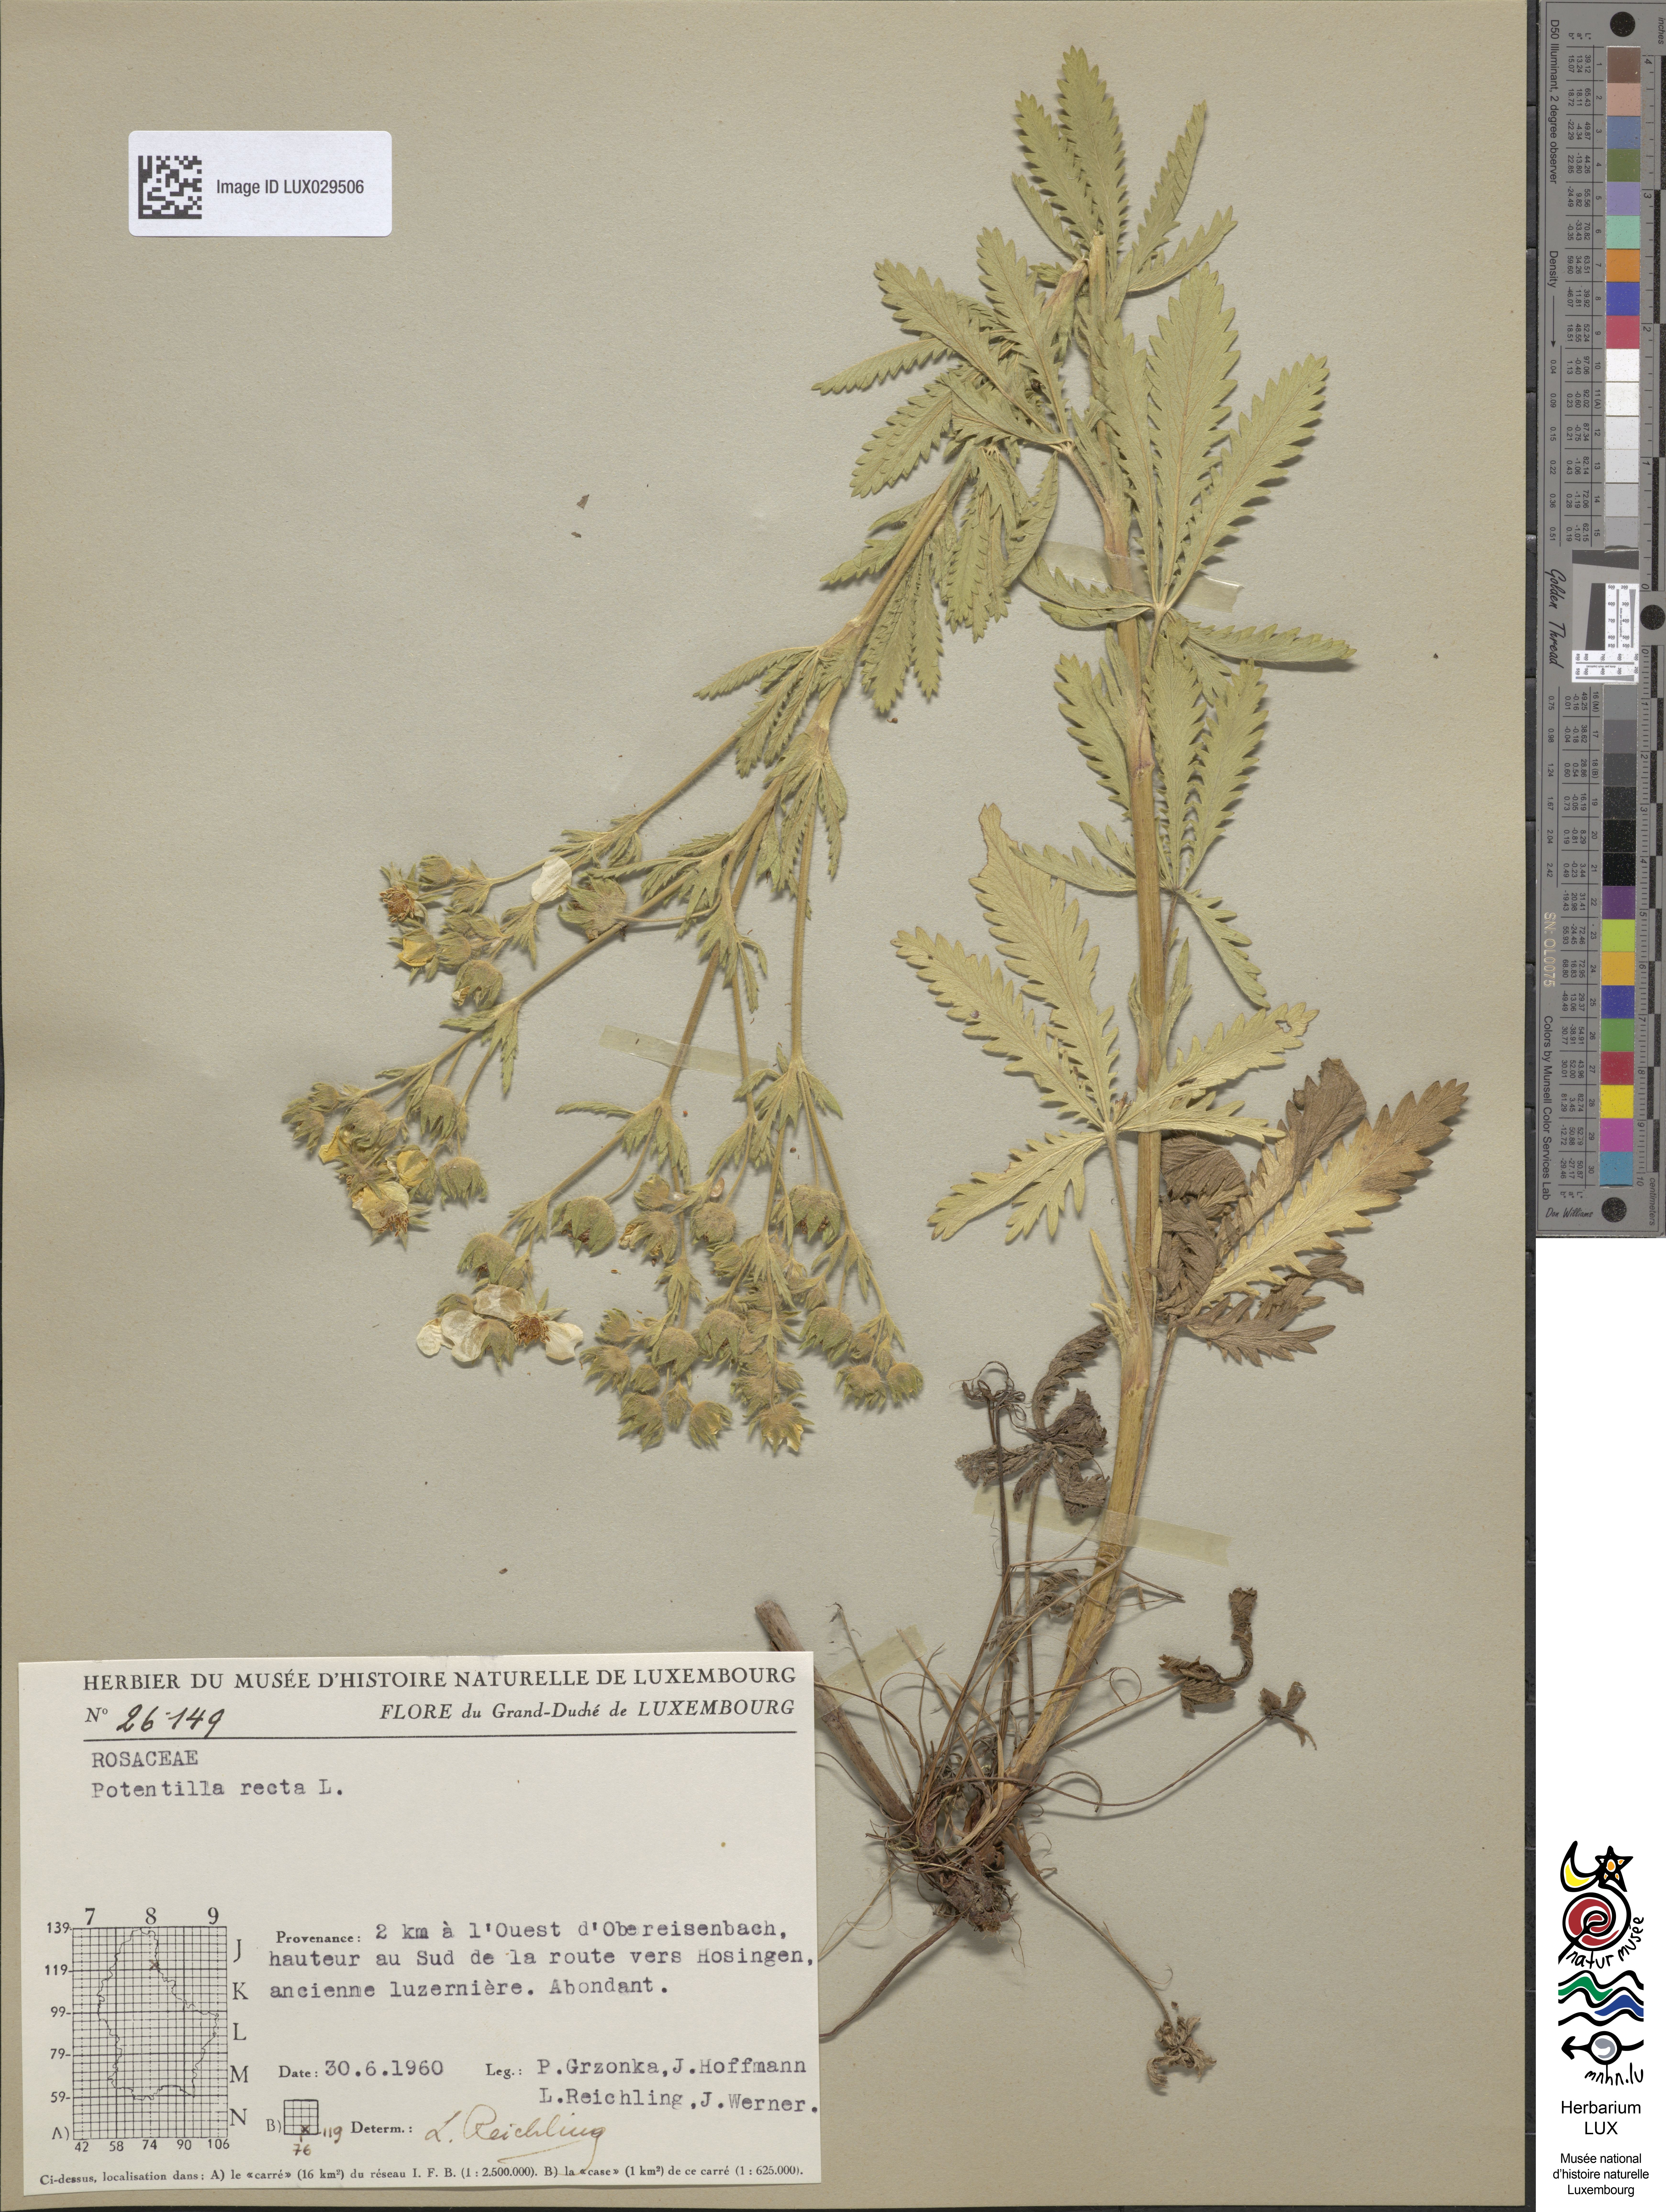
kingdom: Plantae
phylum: Tracheophyta
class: Magnoliopsida
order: Rosales
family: Rosaceae
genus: Potentilla
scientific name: Potentilla recta
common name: Sulphur cinquefoil
